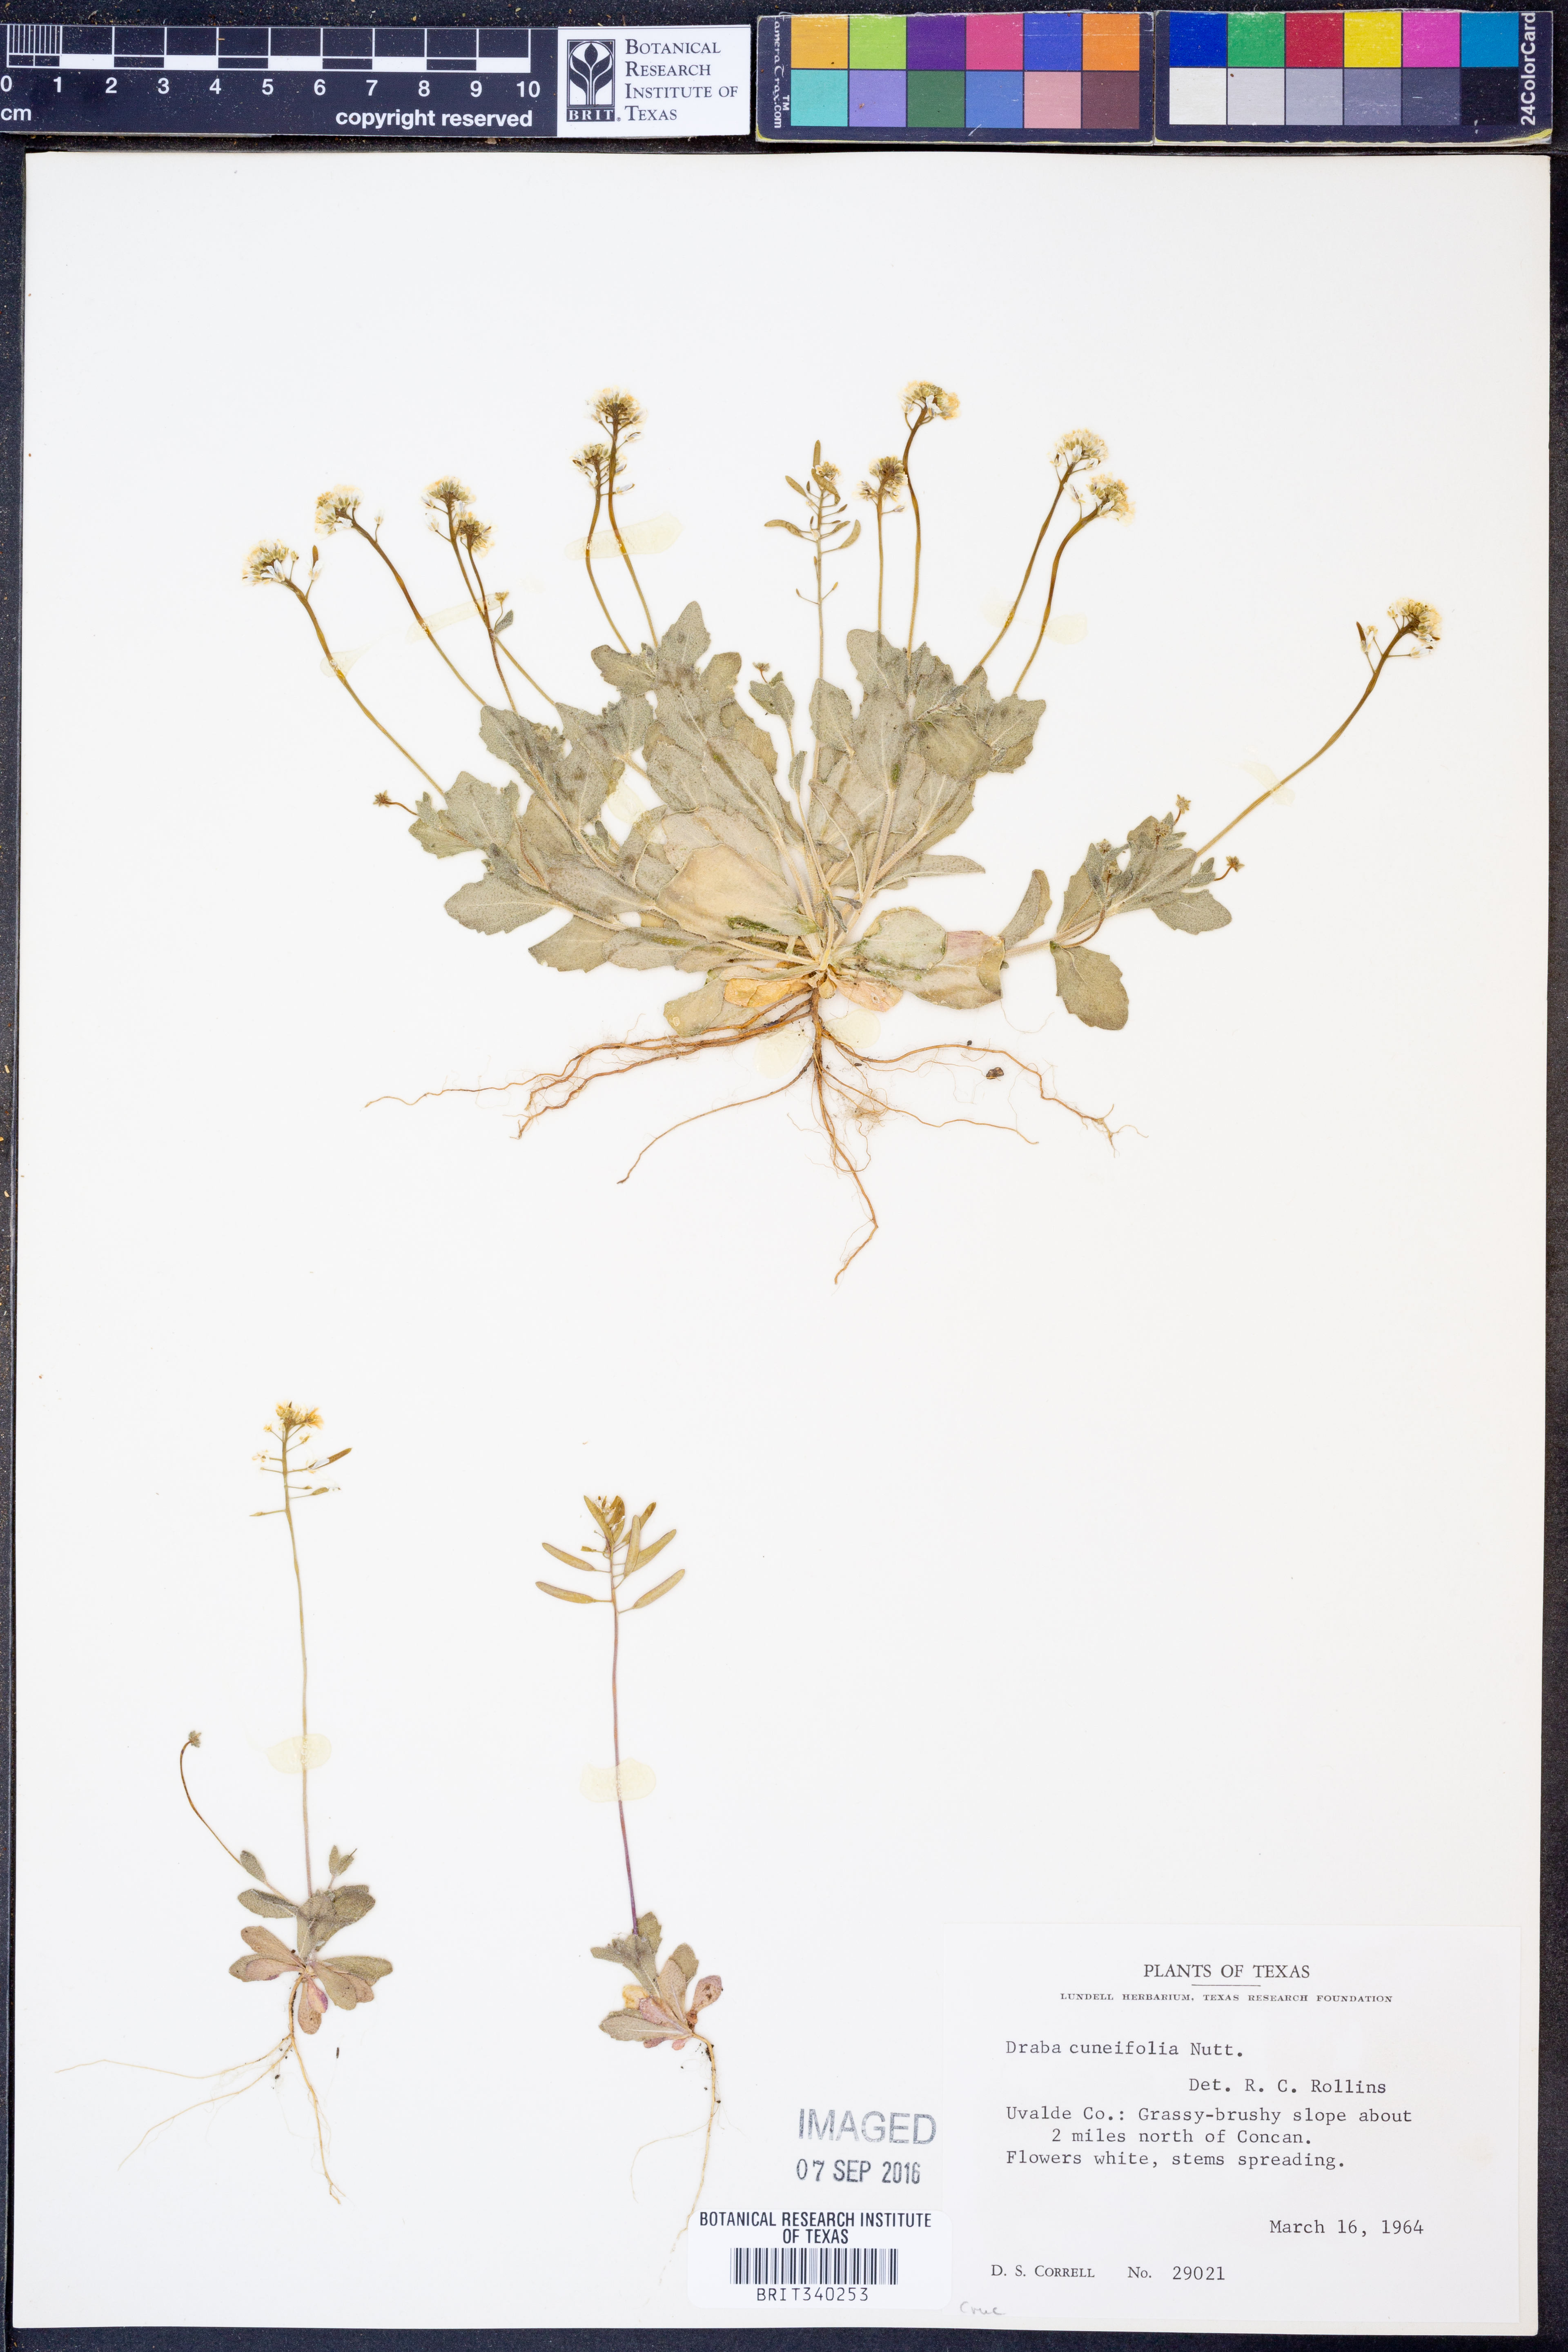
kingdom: Plantae
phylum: Tracheophyta
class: Magnoliopsida
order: Brassicales
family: Brassicaceae
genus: Tomostima
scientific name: Tomostima cuneifolia
